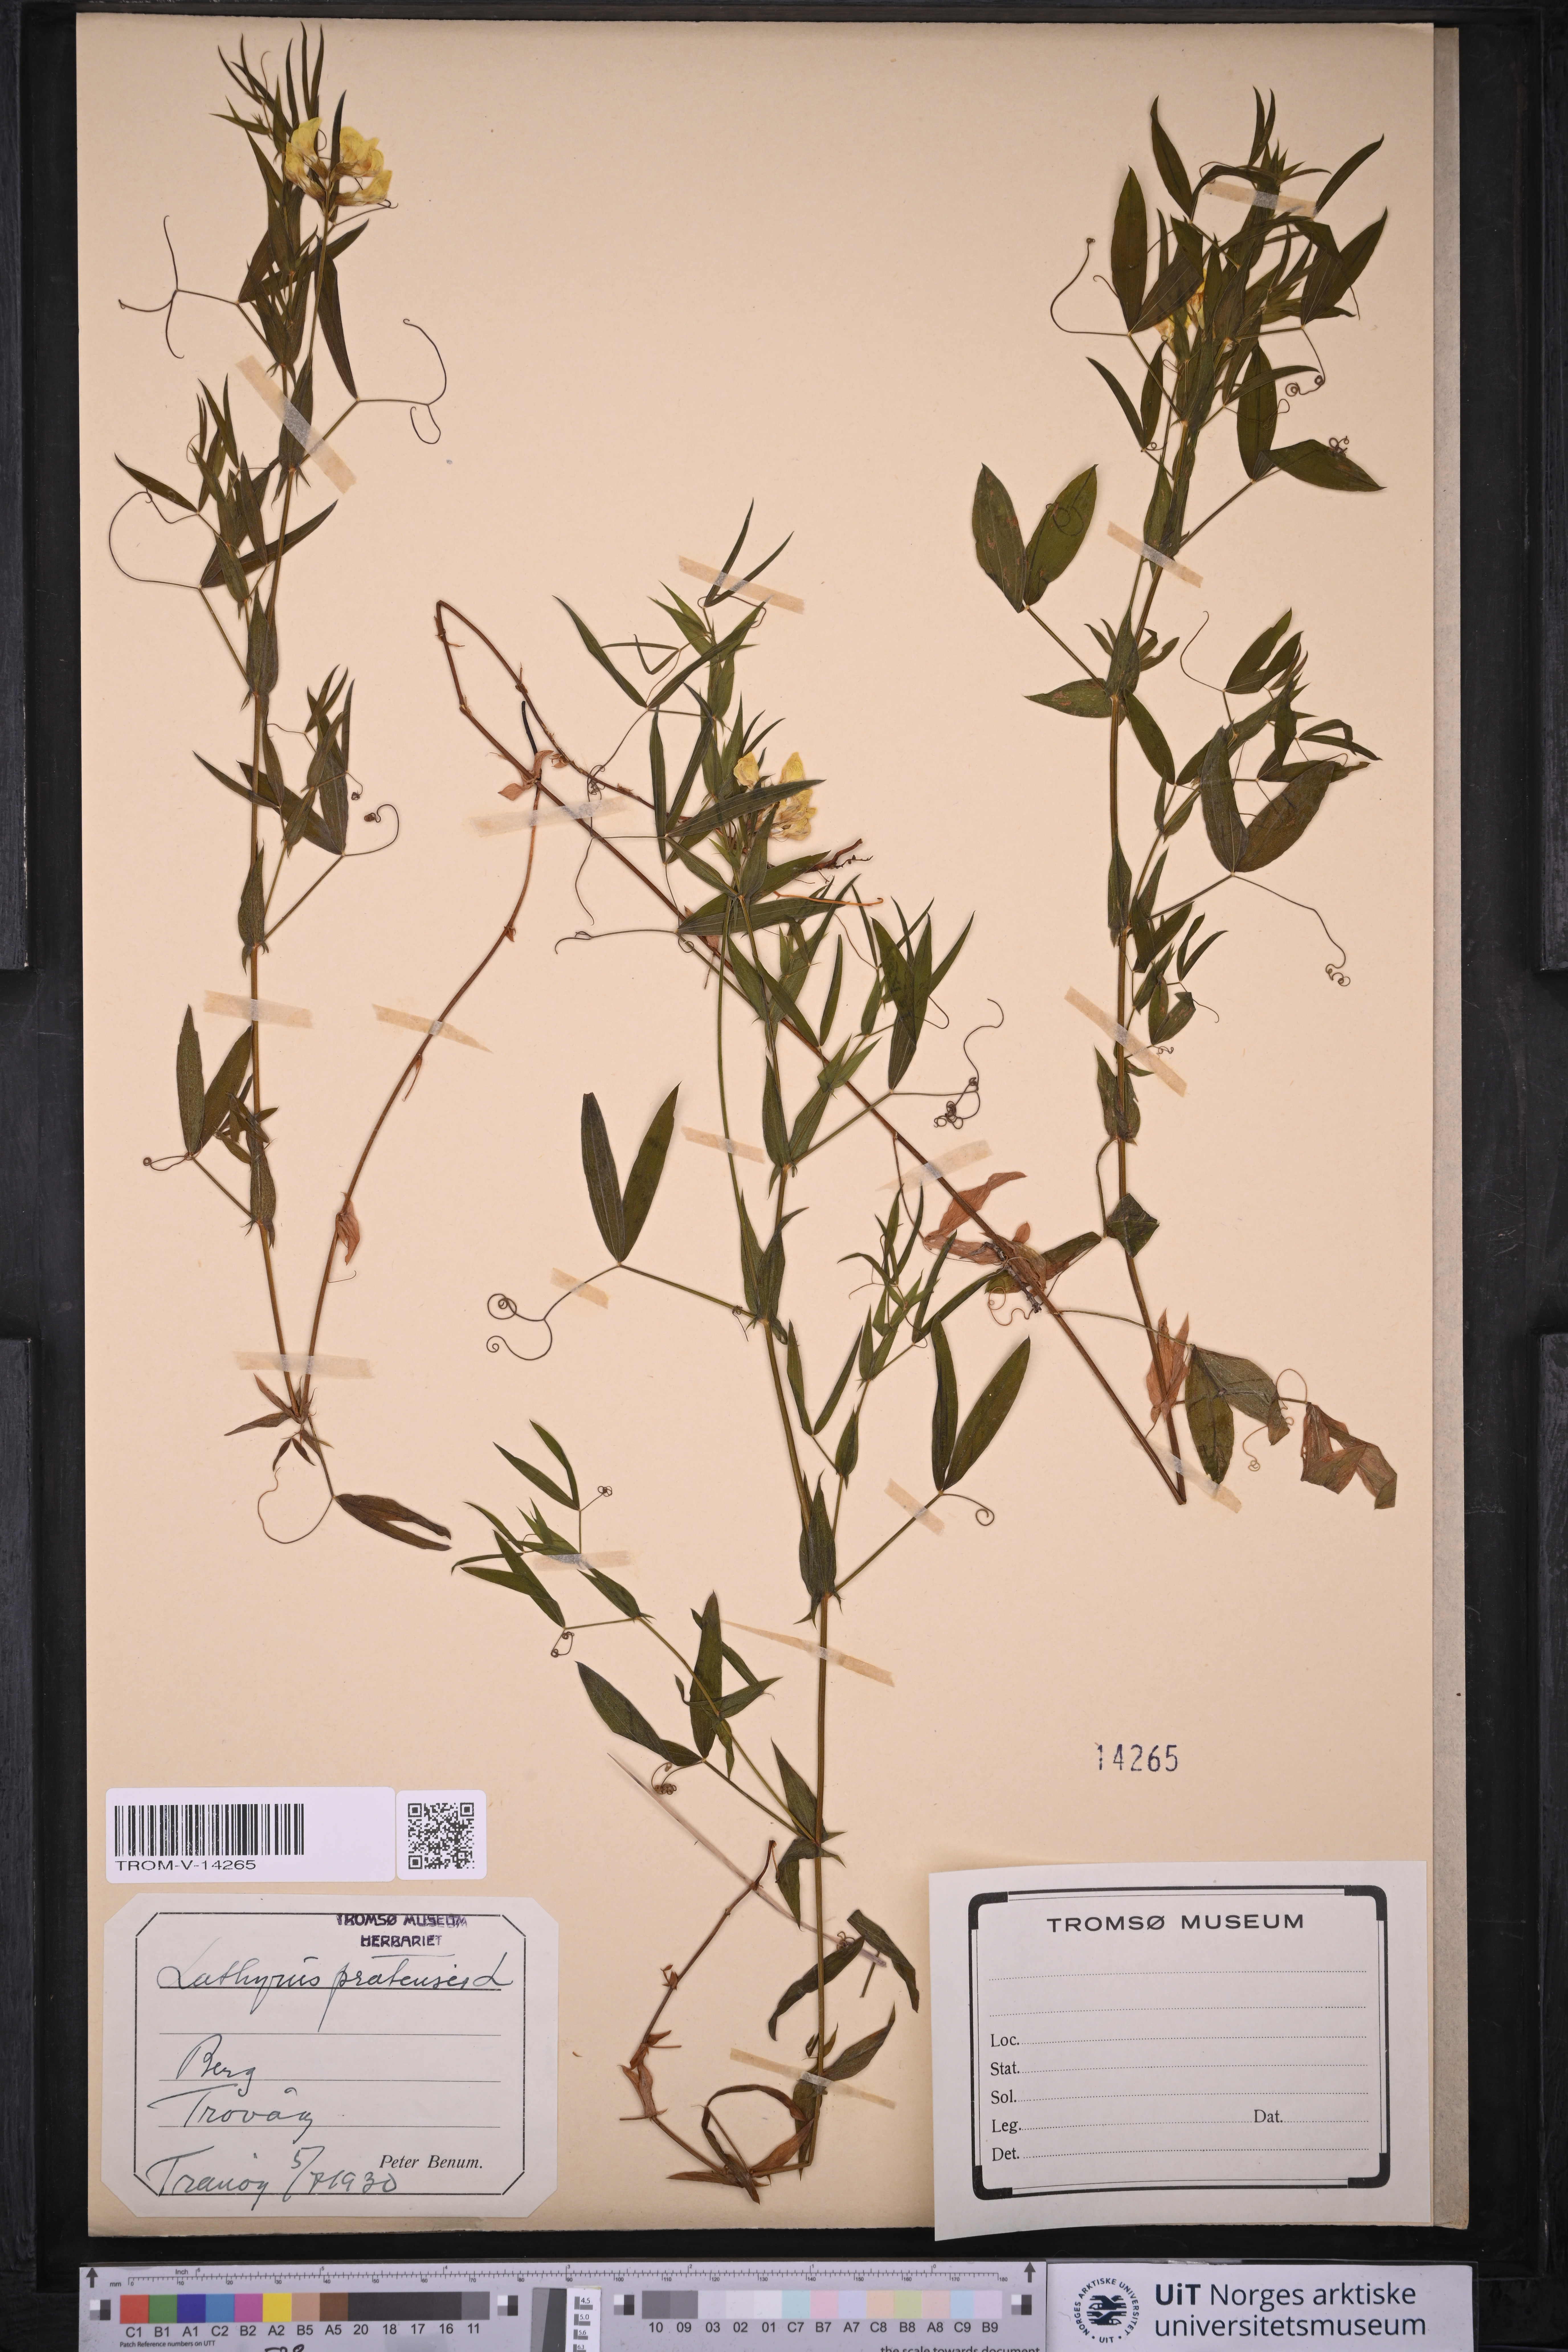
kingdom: Plantae
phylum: Tracheophyta
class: Magnoliopsida
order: Fabales
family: Fabaceae
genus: Lathyrus
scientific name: Lathyrus pratensis
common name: Meadow vetchling
